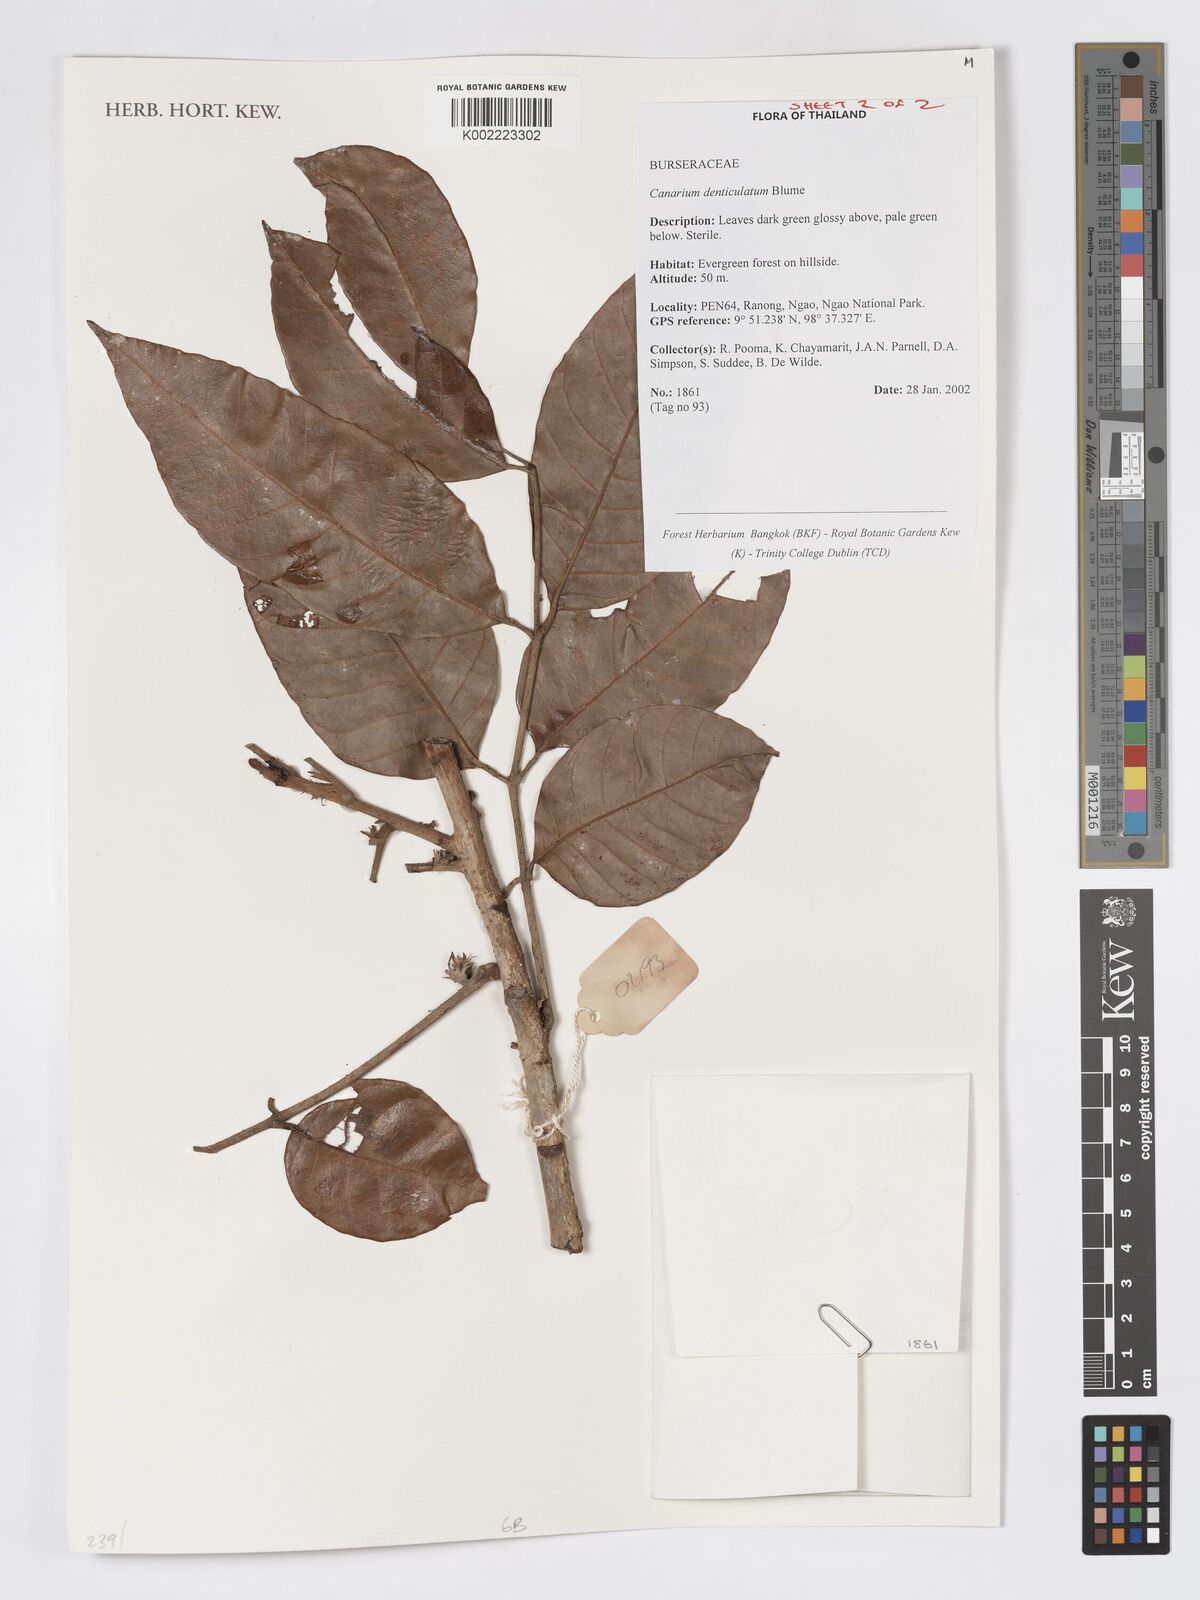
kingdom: Plantae
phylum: Tracheophyta
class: Magnoliopsida
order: Sapindales
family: Burseraceae
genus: Canarium
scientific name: Canarium denticulatum
